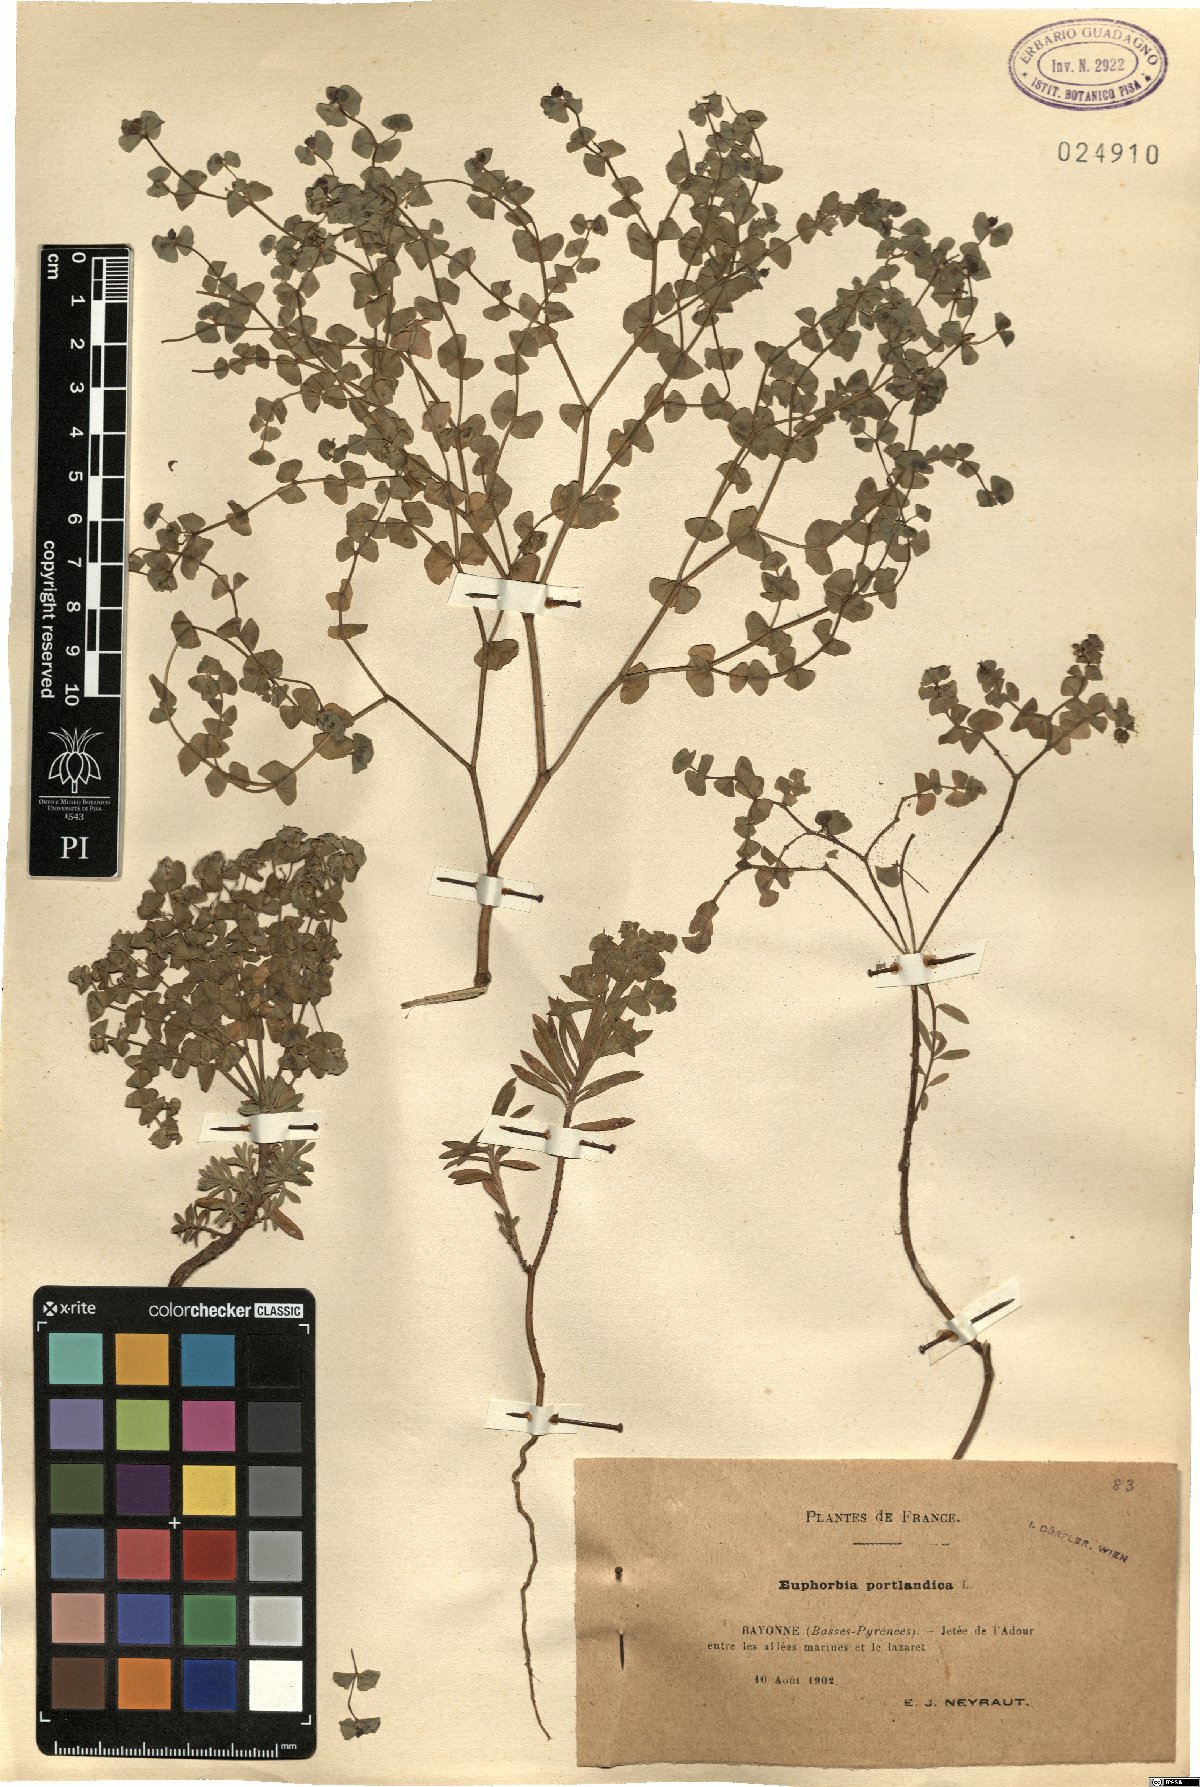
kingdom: Plantae
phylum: Tracheophyta
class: Magnoliopsida
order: Malpighiales
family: Euphorbiaceae
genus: Euphorbia
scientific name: Euphorbia portlandica
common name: Portland spurge
